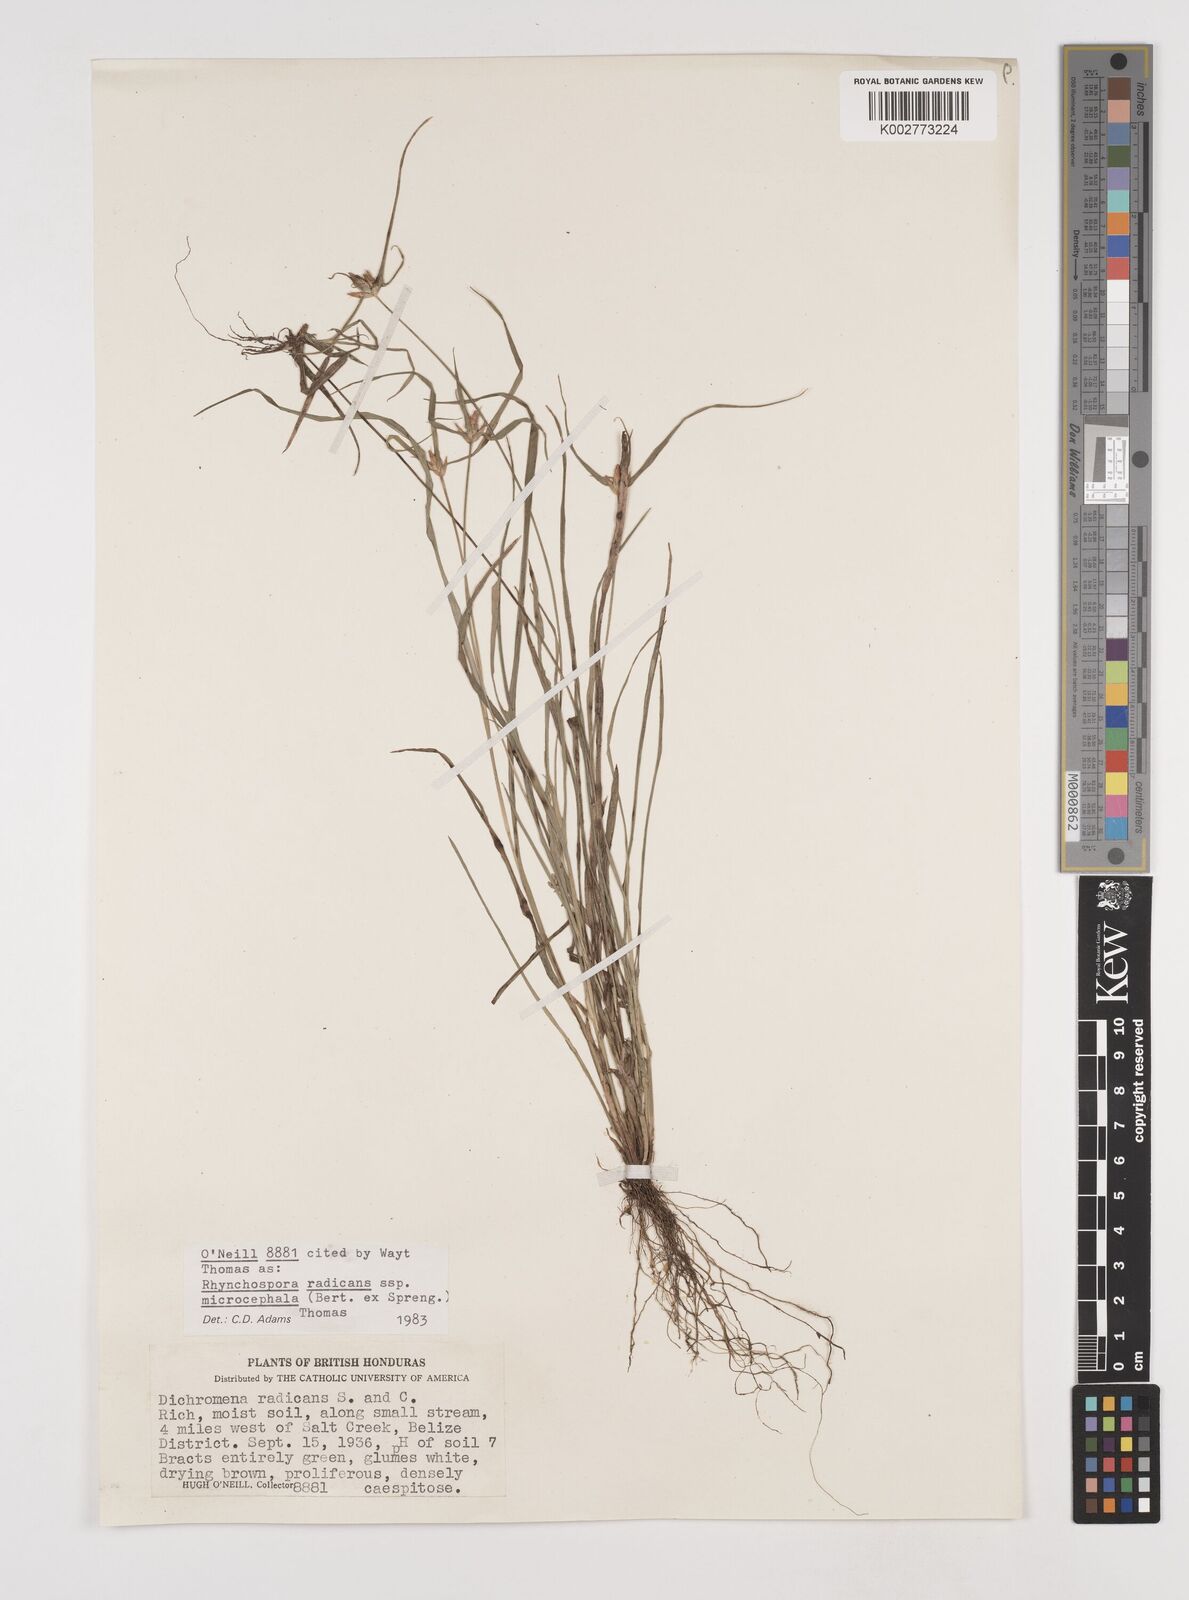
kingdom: Plantae
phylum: Tracheophyta
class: Liliopsida
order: Poales
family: Cyperaceae
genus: Rhynchospora
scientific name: Rhynchospora radicans
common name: Tropical whitetop
